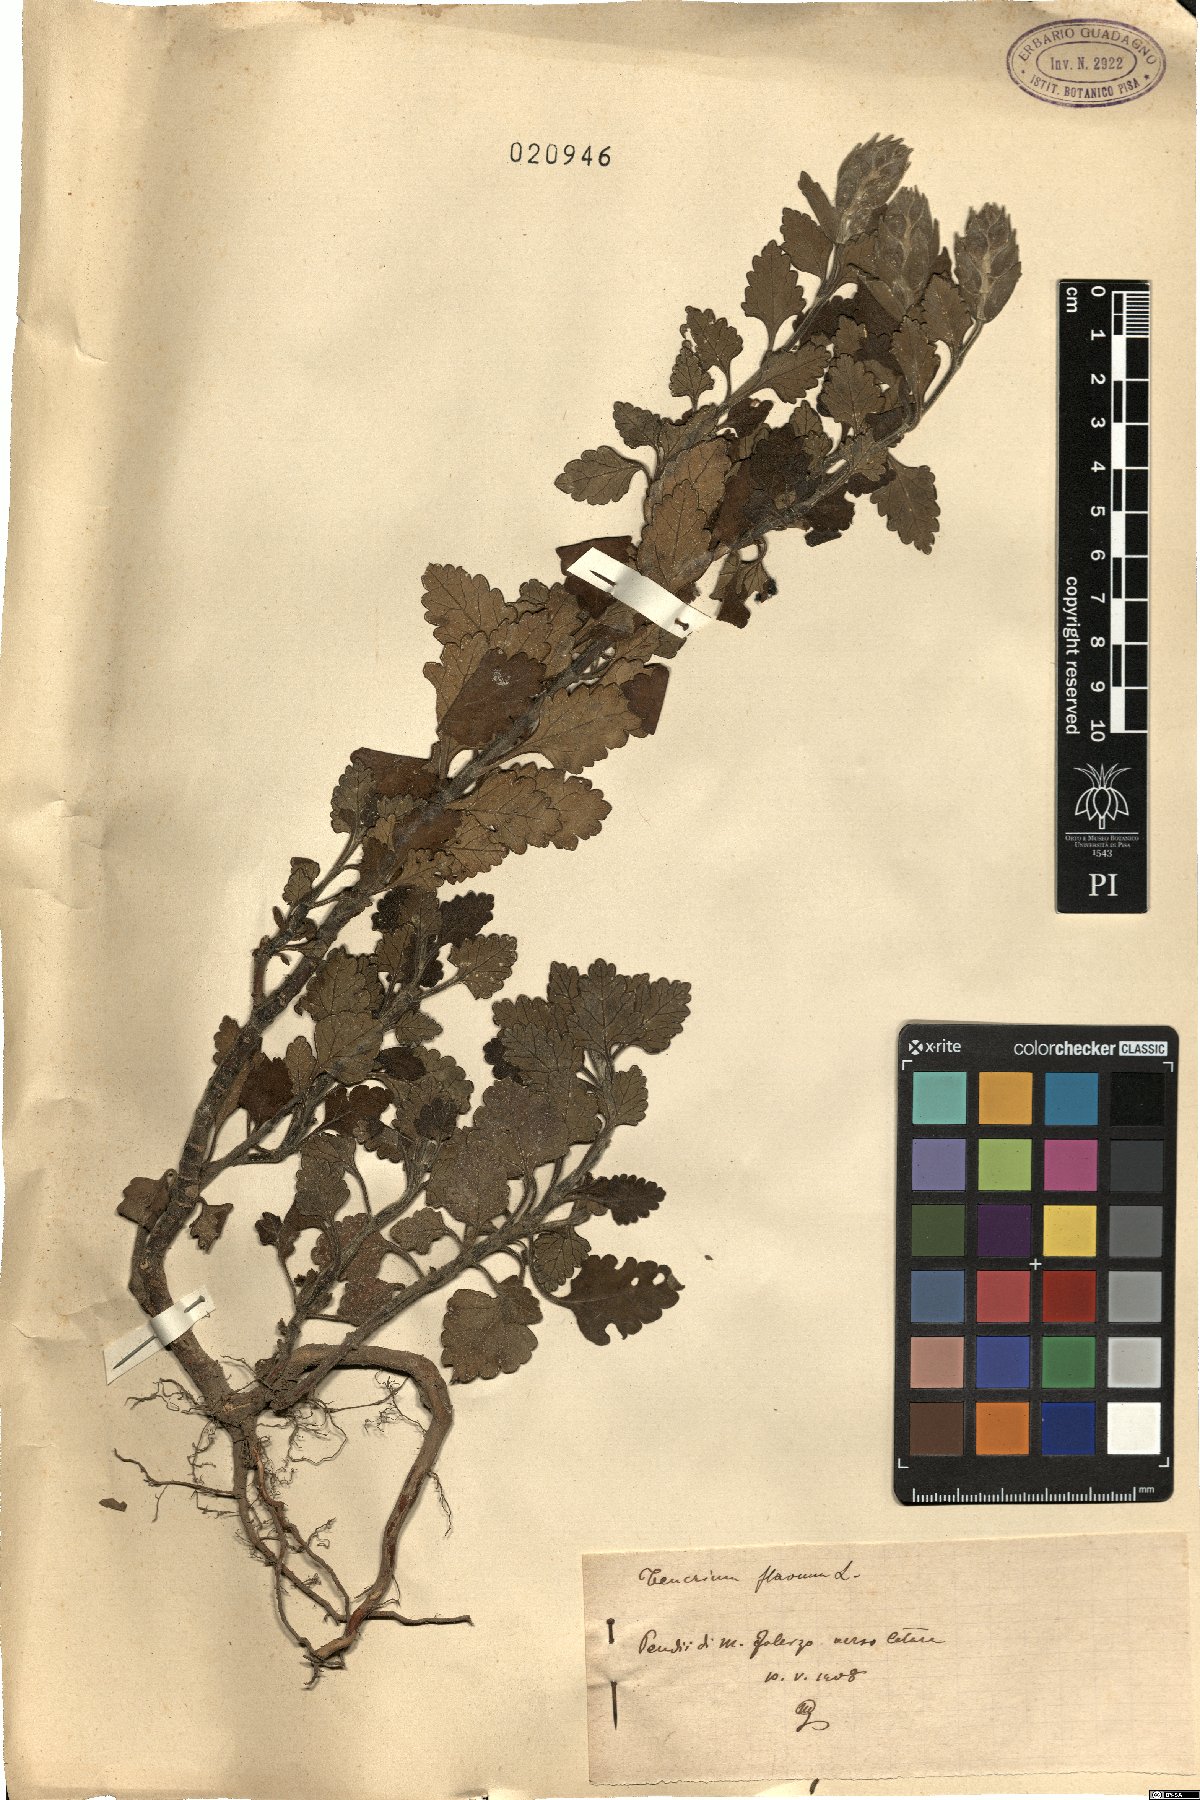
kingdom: Plantae
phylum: Tracheophyta
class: Magnoliopsida
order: Lamiales
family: Lamiaceae
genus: Teucrium
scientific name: Teucrium flavum
